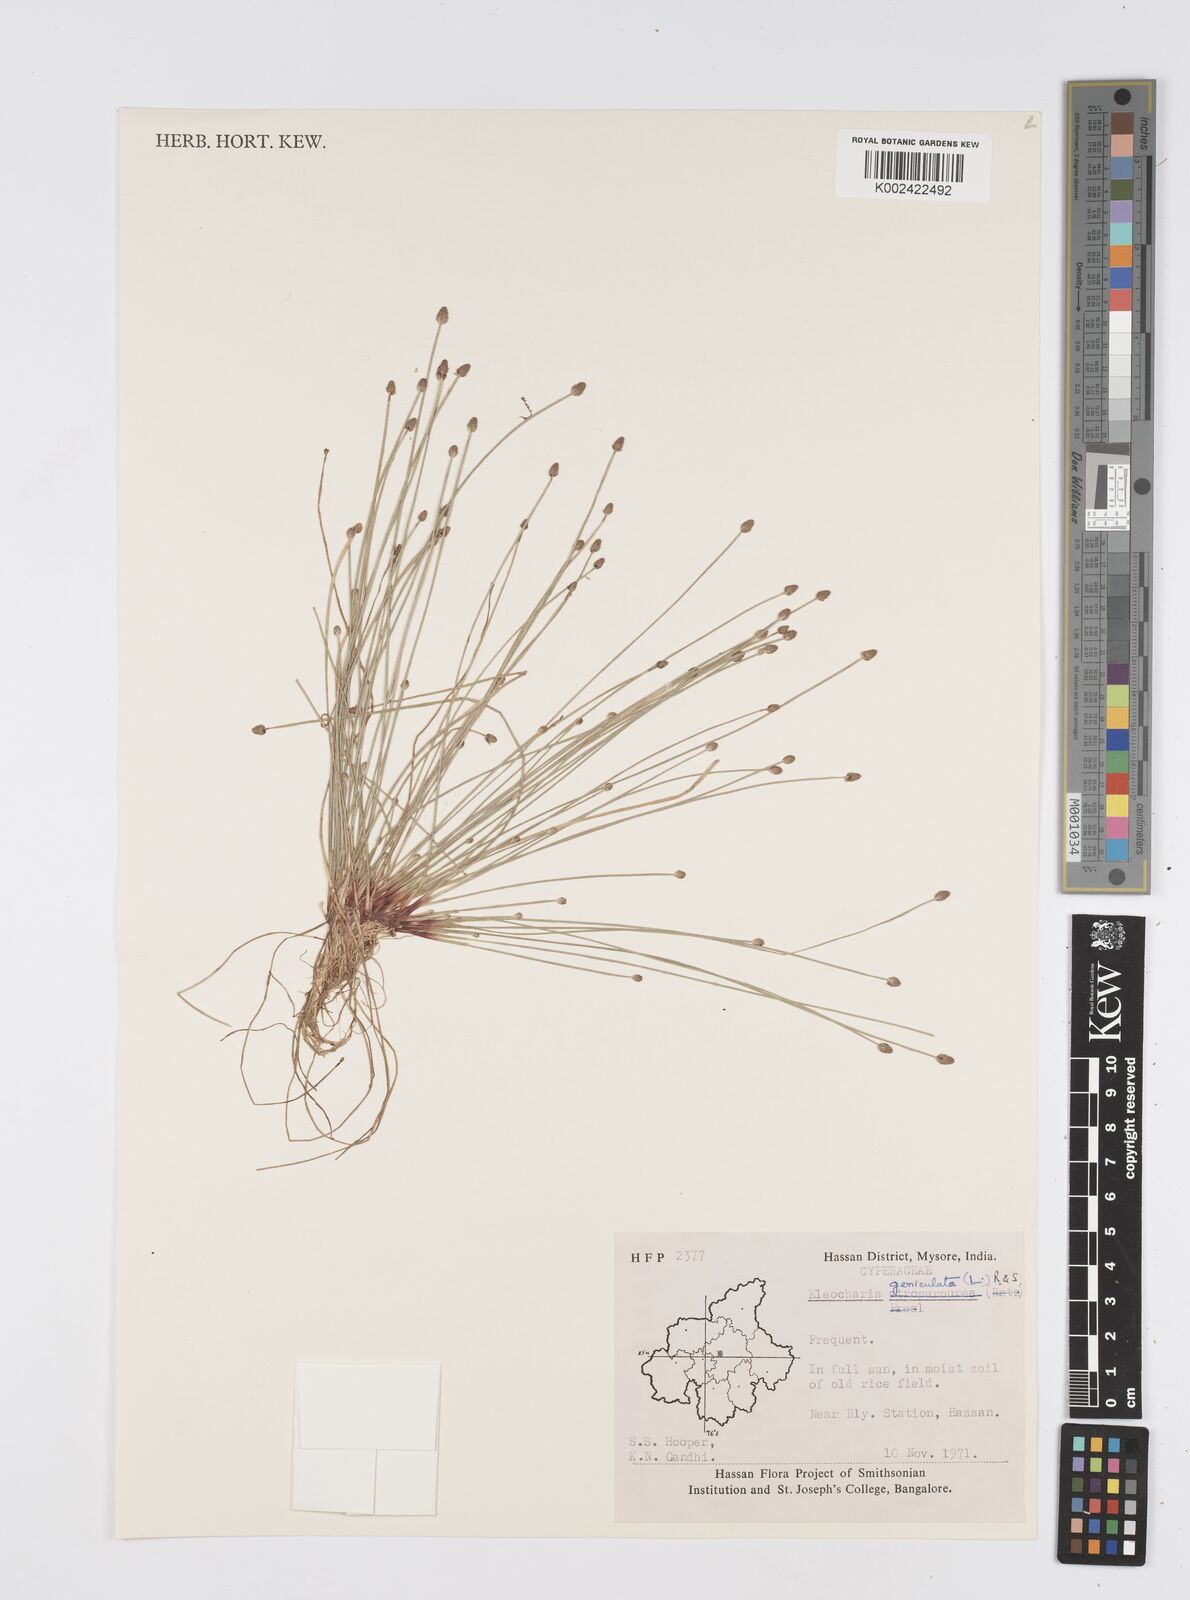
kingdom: Plantae
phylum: Tracheophyta
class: Liliopsida
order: Poales
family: Cyperaceae
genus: Eleocharis
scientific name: Eleocharis geniculata
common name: Canada spikesedge
